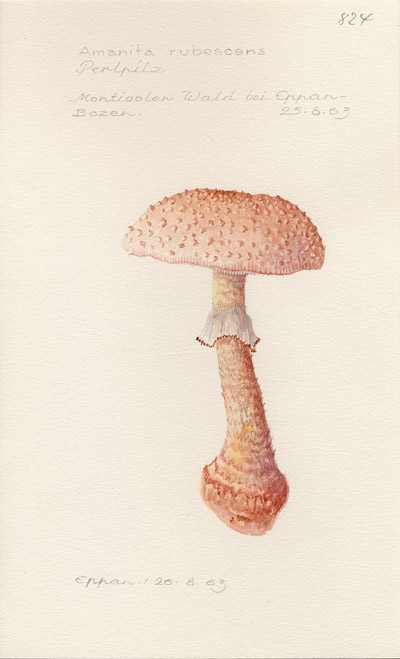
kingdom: Fungi
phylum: Basidiomycota
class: Agaricomycetes
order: Agaricales
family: Amanitaceae
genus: Amanita
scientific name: Amanita rubescens
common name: Blusher
